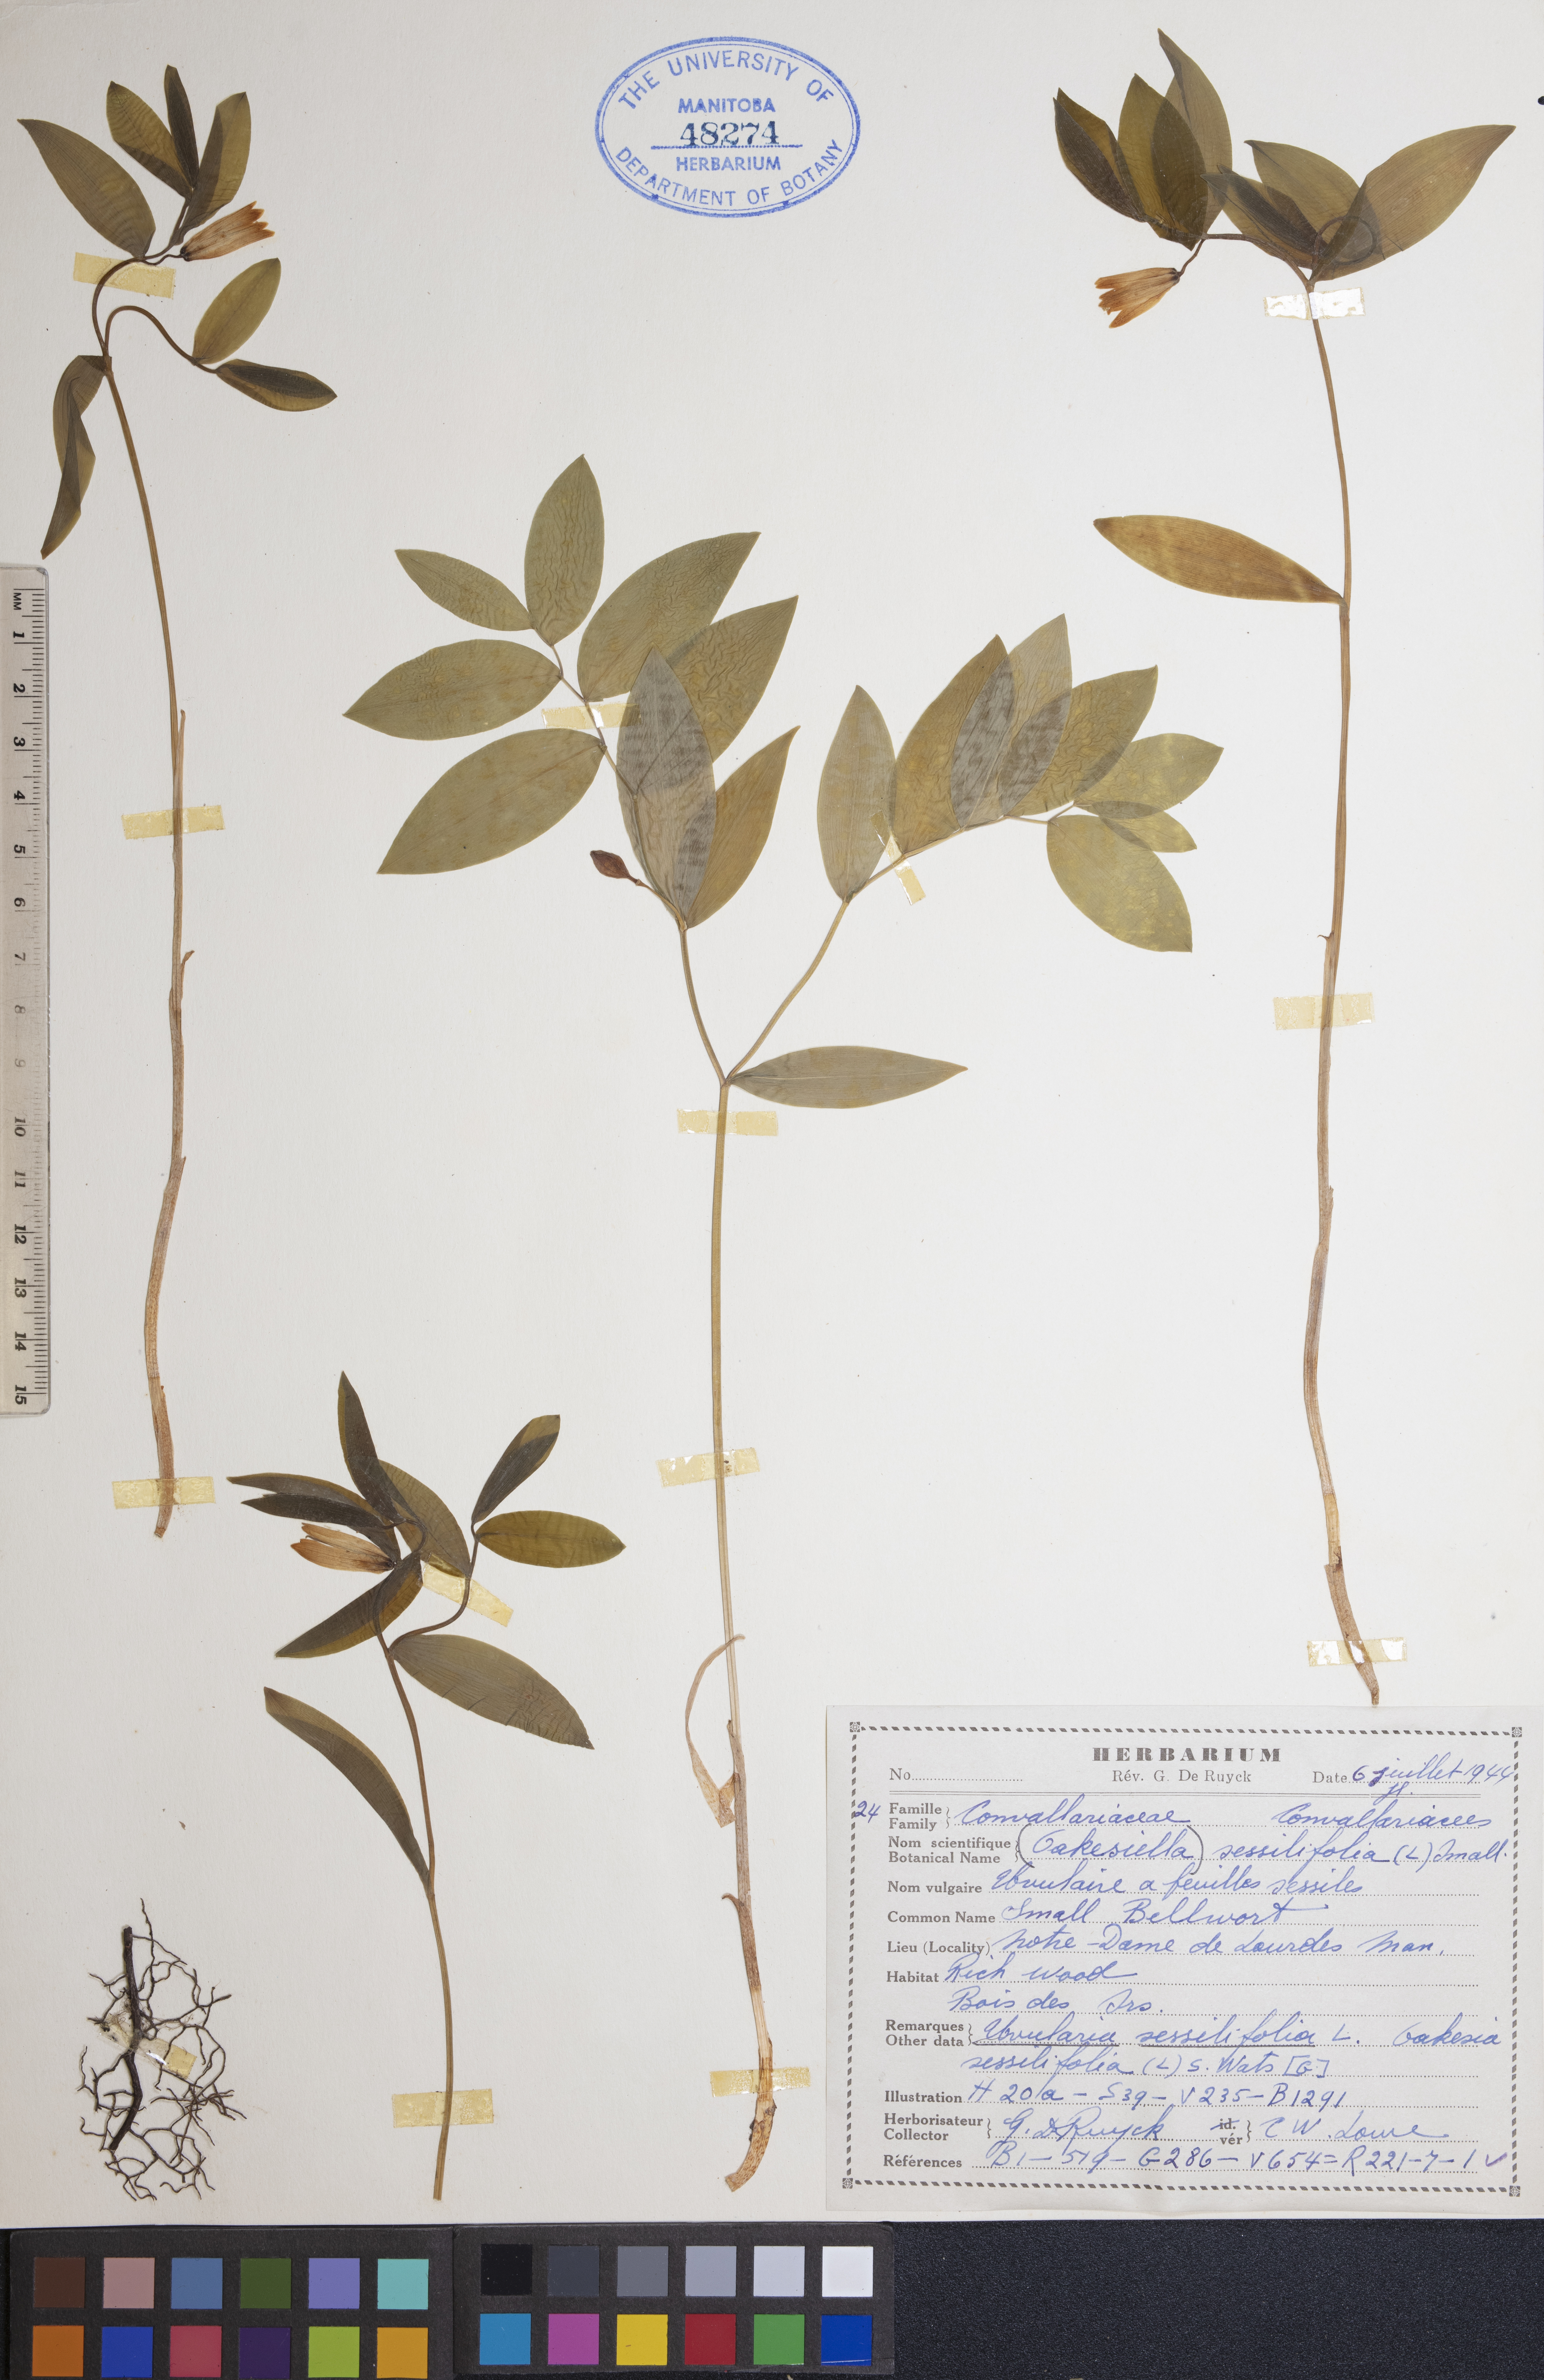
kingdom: Plantae
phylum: Tracheophyta
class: Liliopsida
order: Liliales
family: Colchicaceae
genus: Uvularia
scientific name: Uvularia sessilifolia
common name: Straw-lily
